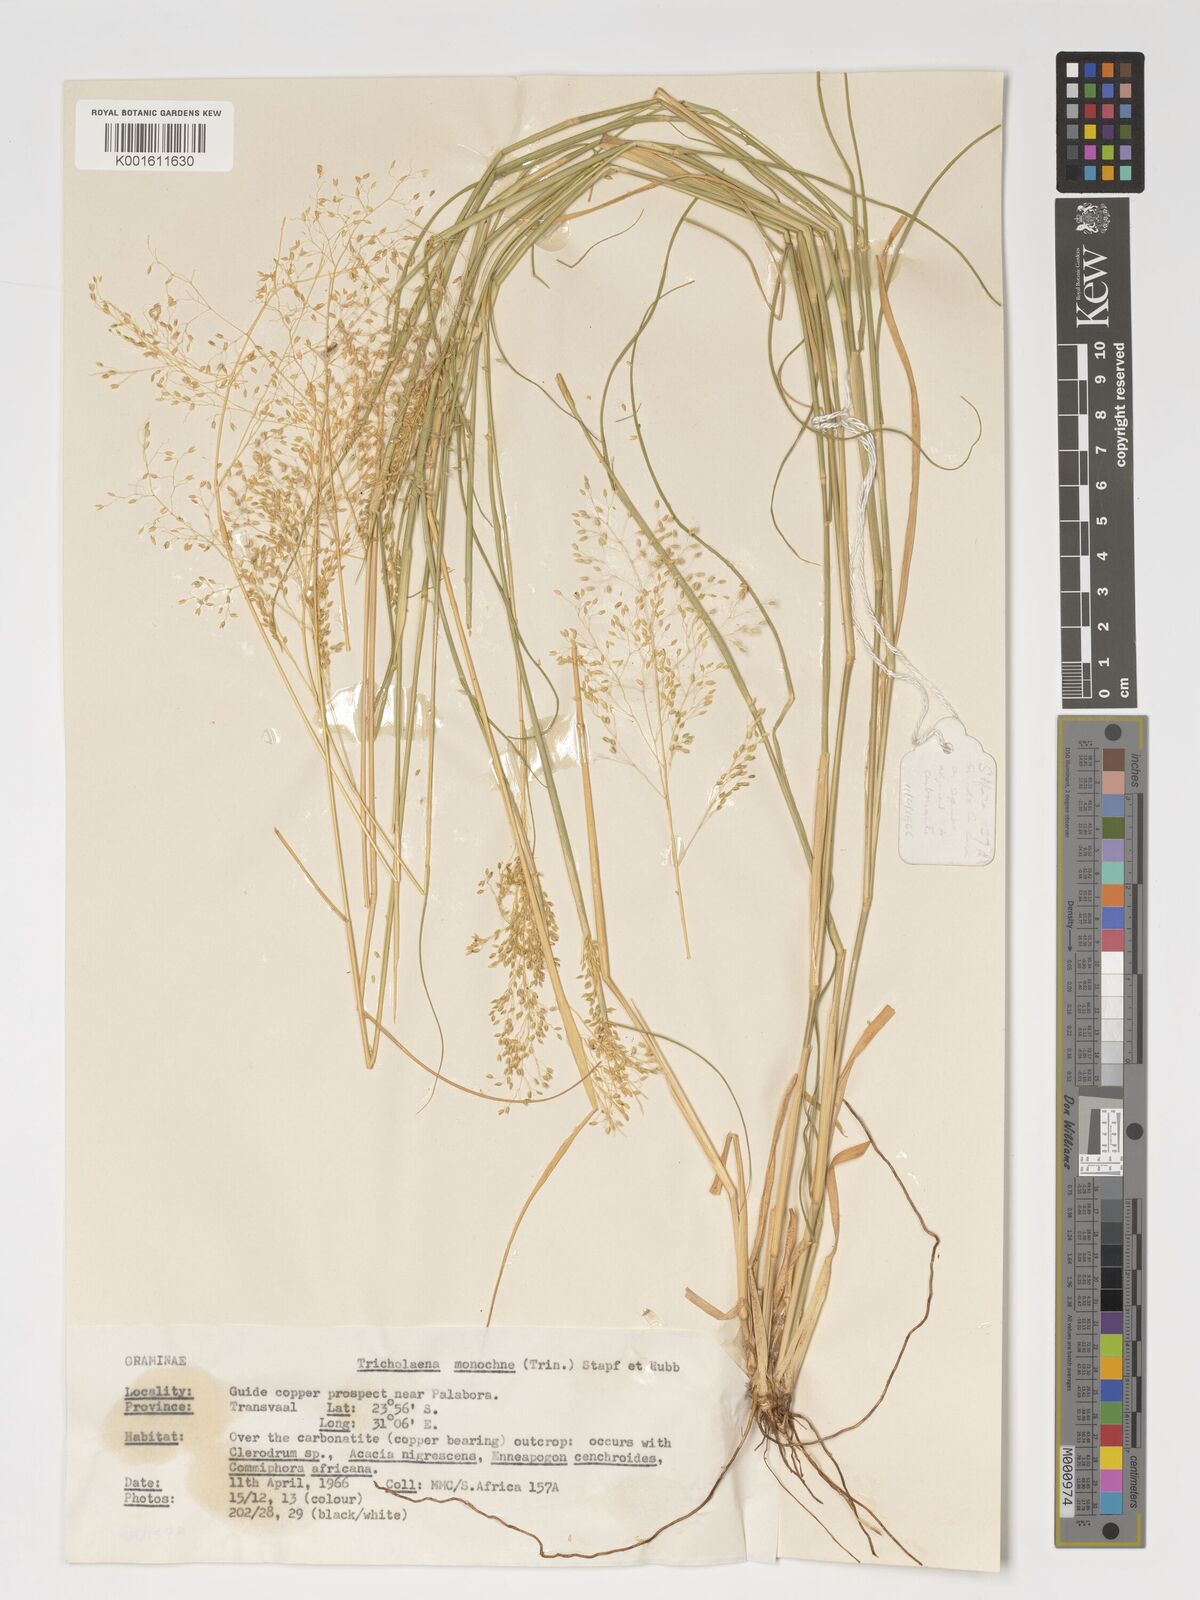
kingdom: Plantae
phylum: Tracheophyta
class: Liliopsida
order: Poales
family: Poaceae
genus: Tricholaena
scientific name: Tricholaena monachne
